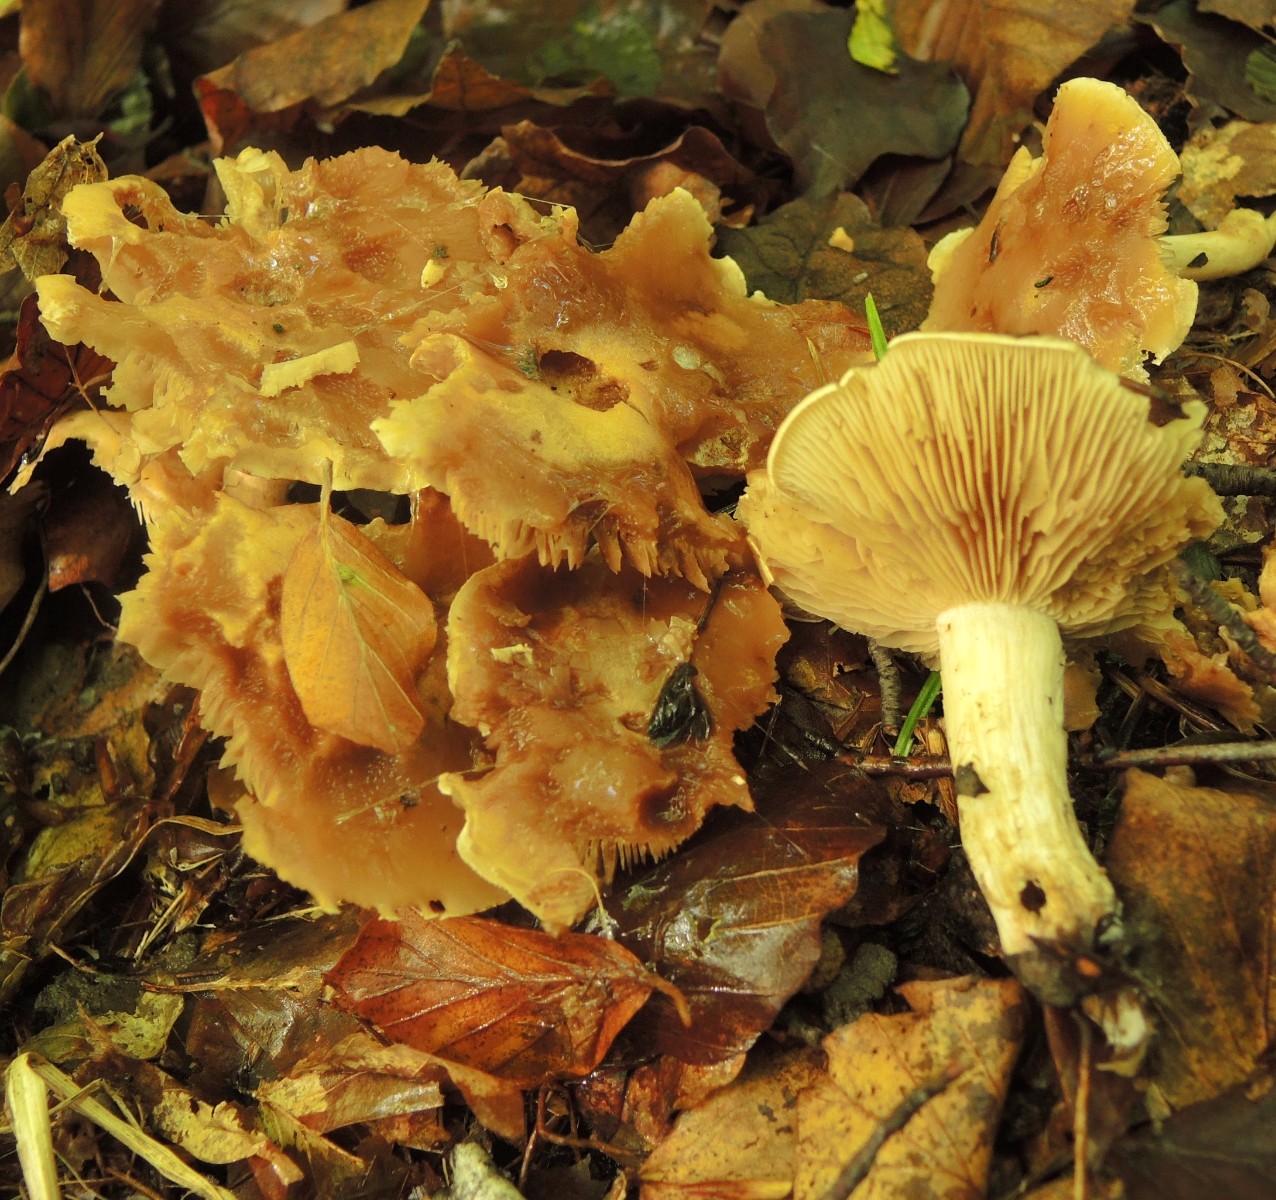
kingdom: Fungi
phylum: Basidiomycota
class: Agaricomycetes
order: Agaricales
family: Hymenogastraceae
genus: Hebeloma
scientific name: Hebeloma theobrominum
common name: rødbrun tåreblad
